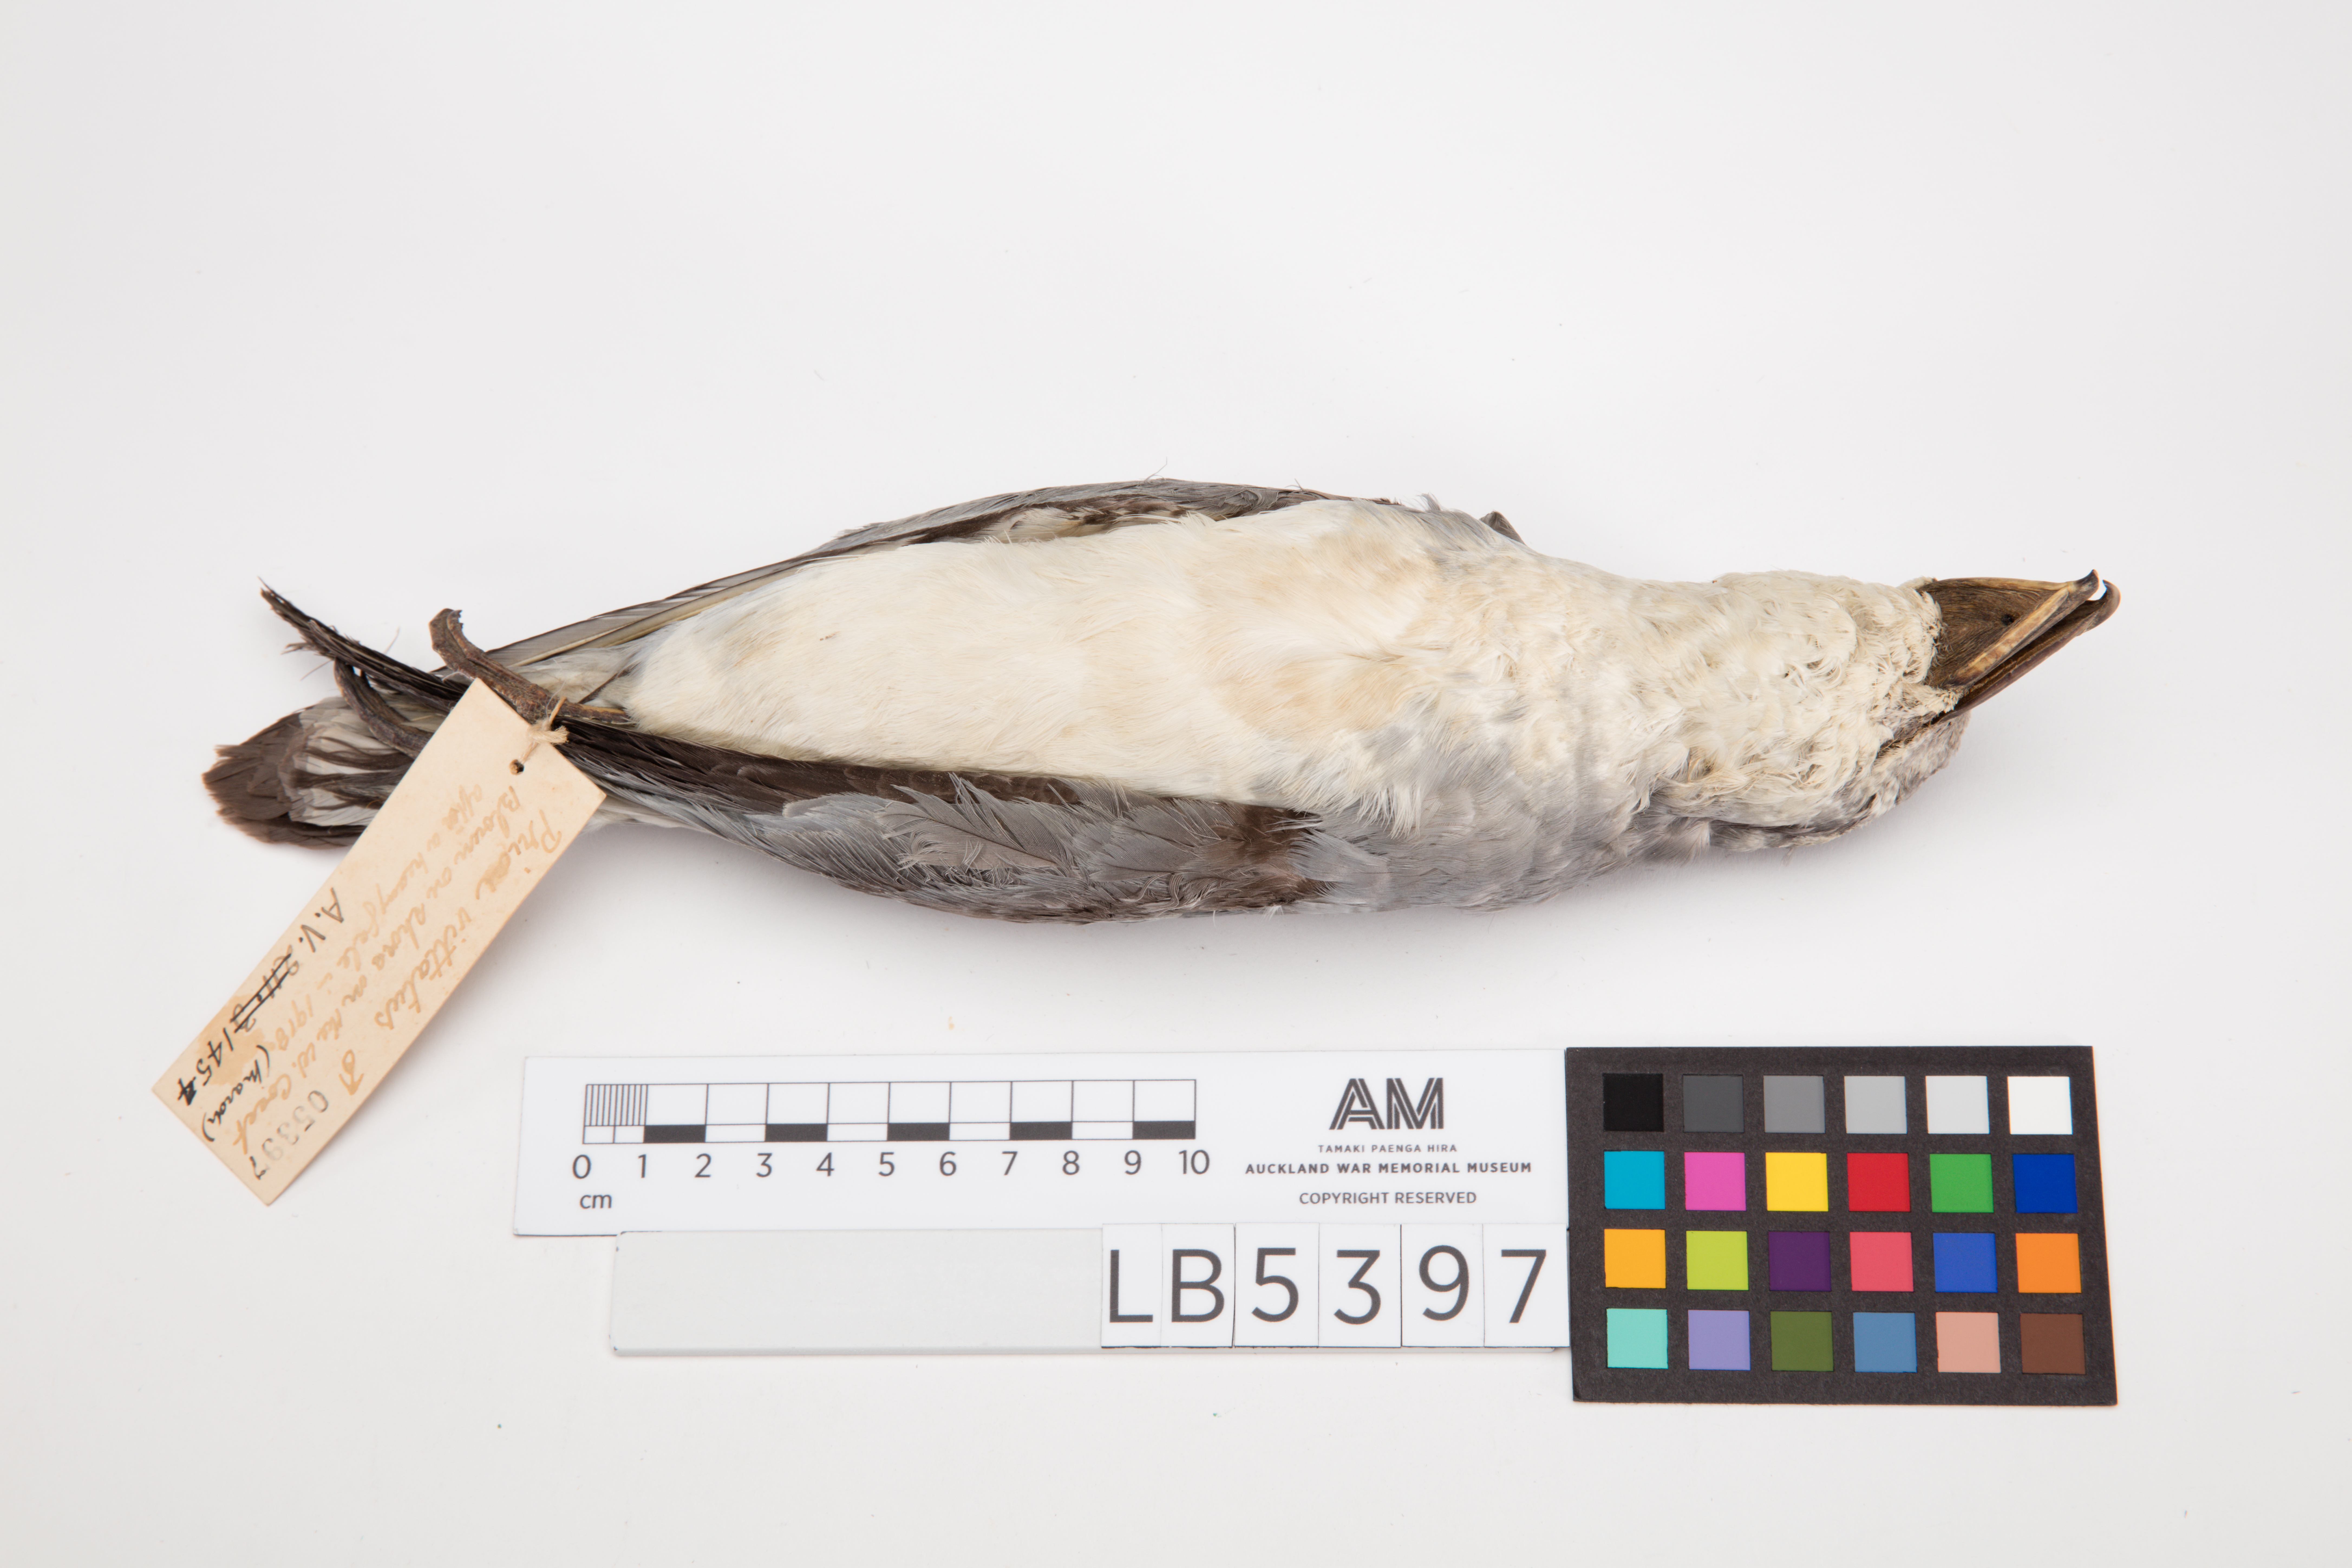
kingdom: Animalia
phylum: Chordata
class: Aves
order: Procellariiformes
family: Procellariidae
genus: Pachyptila
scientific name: Pachyptila vittata
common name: Broad-billed prion
